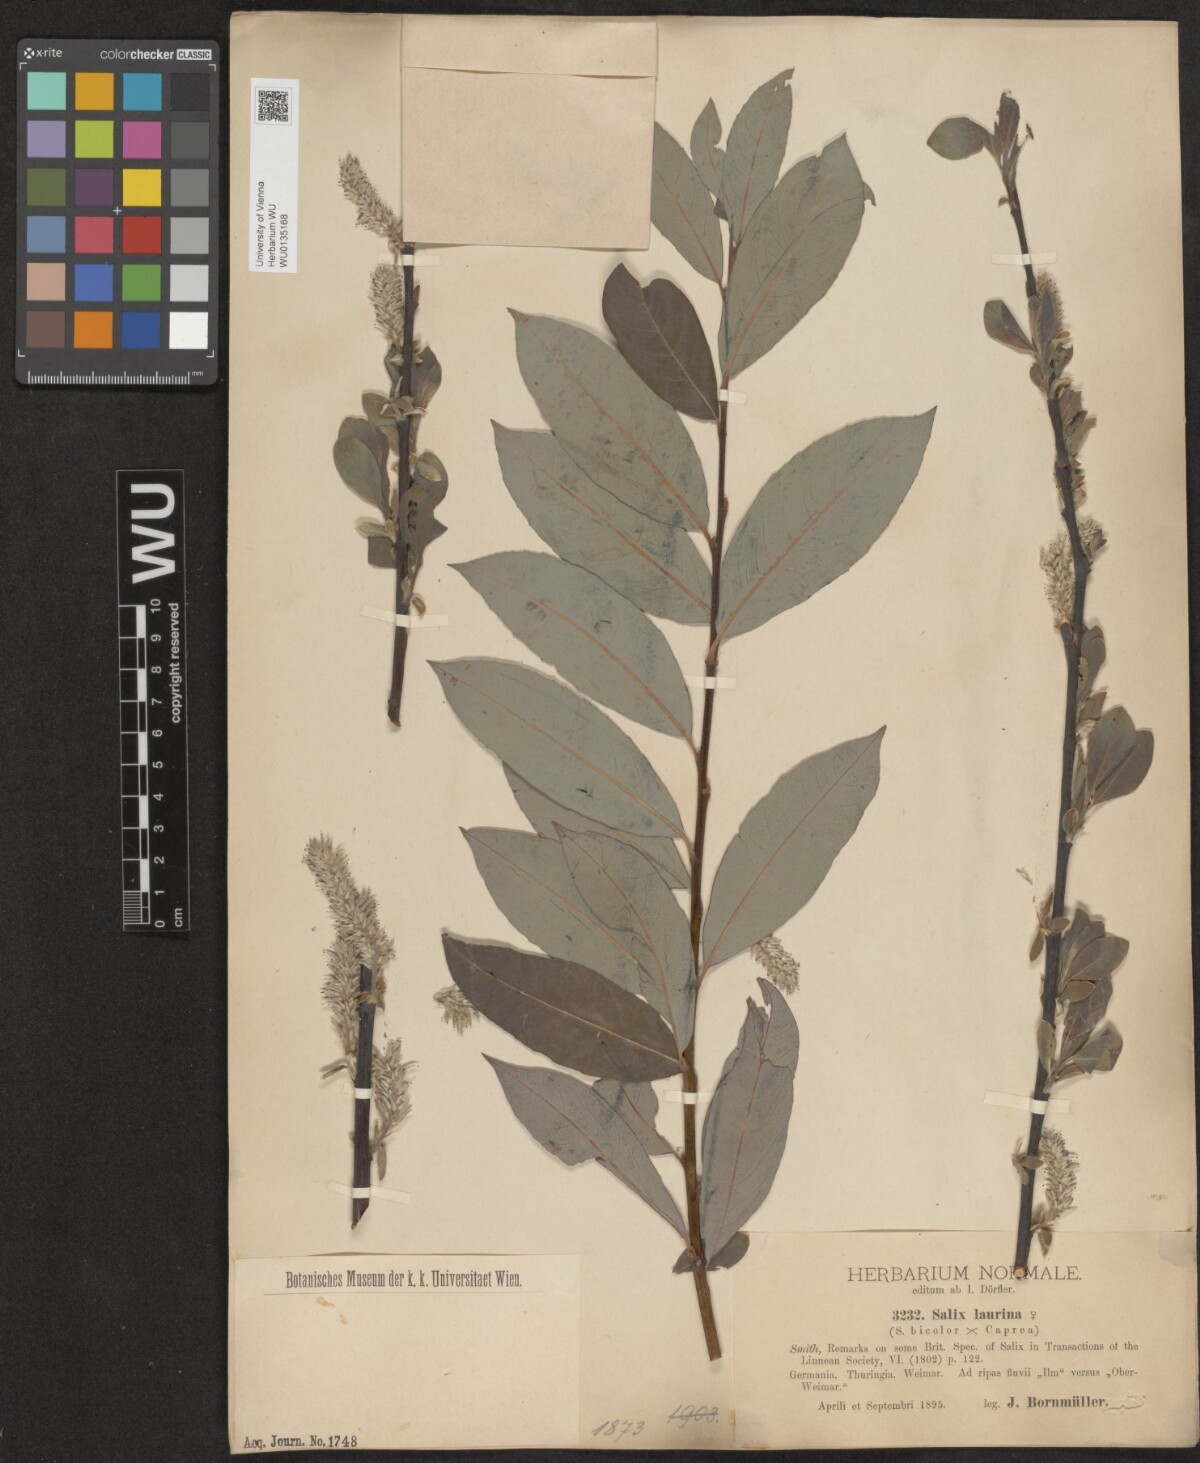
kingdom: Plantae
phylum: Tracheophyta
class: Magnoliopsida
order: Malpighiales
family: Salicaceae
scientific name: Salicaceae
